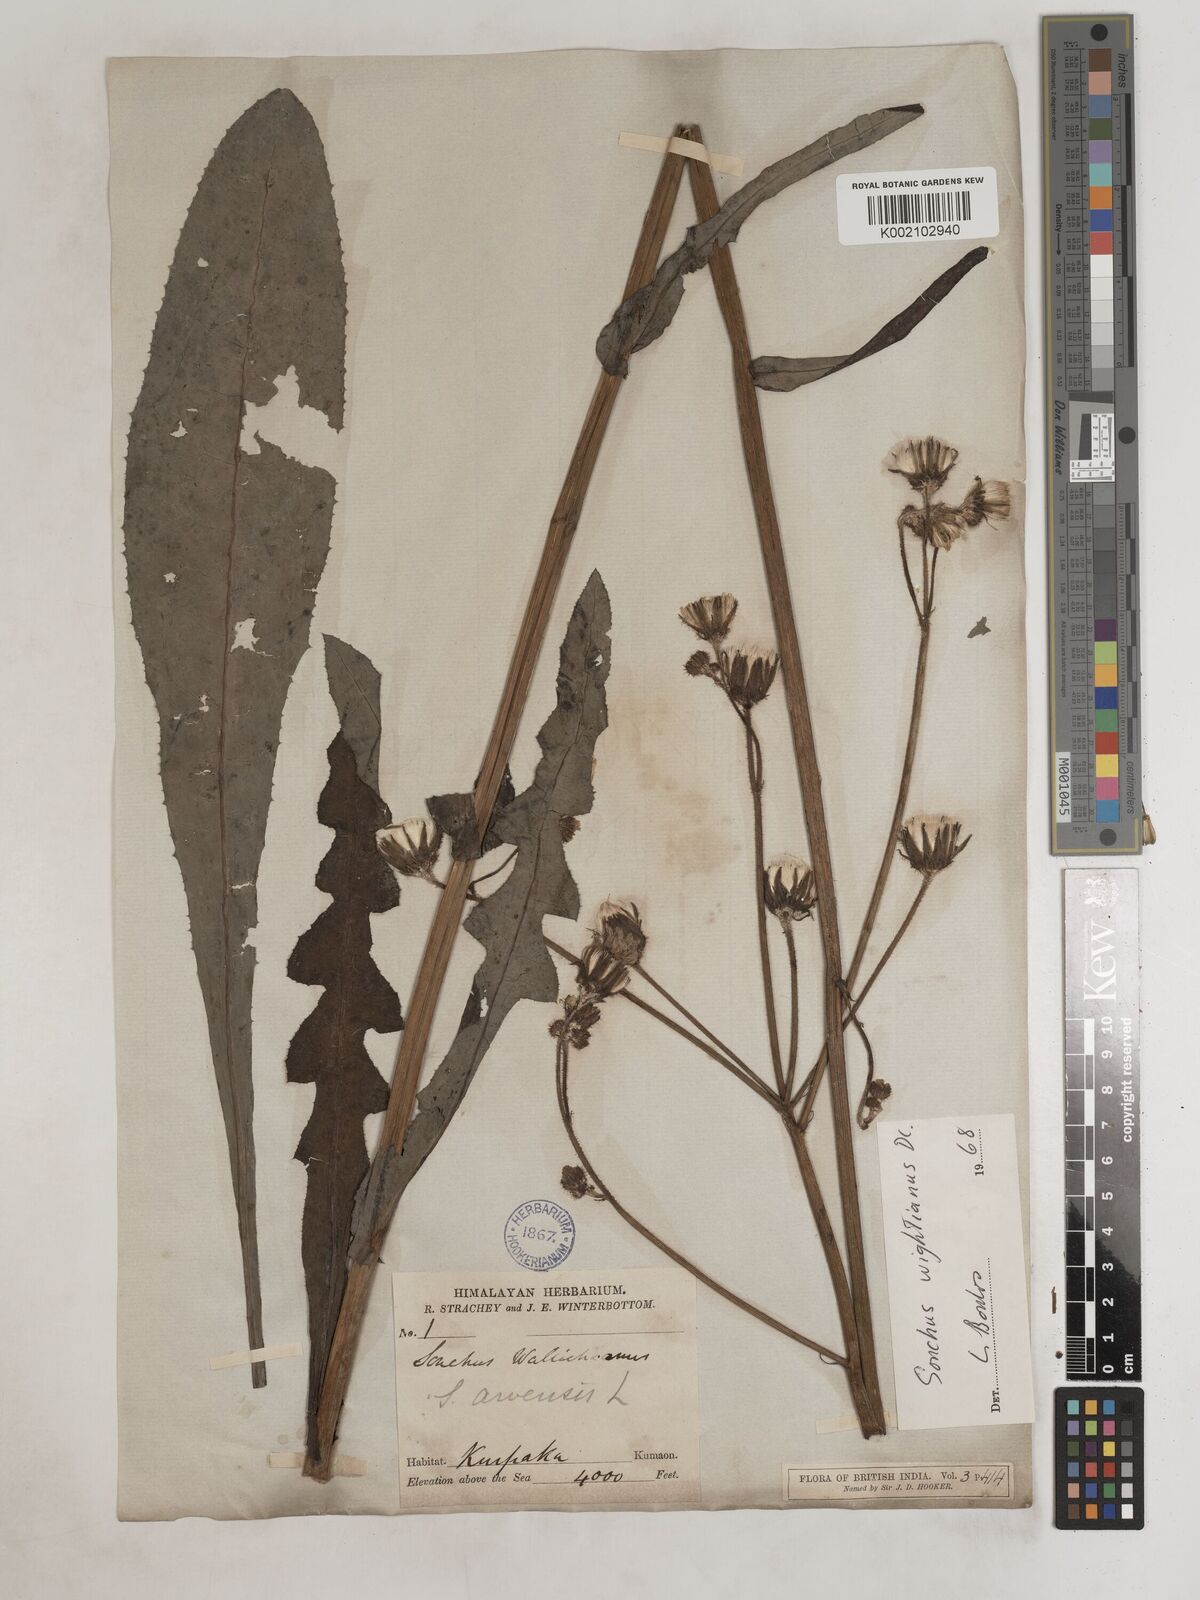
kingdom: Plantae
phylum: Tracheophyta
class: Magnoliopsida
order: Asterales
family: Asteraceae
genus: Sonchus
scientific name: Sonchus arvensis
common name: Perennial sow-thistle
